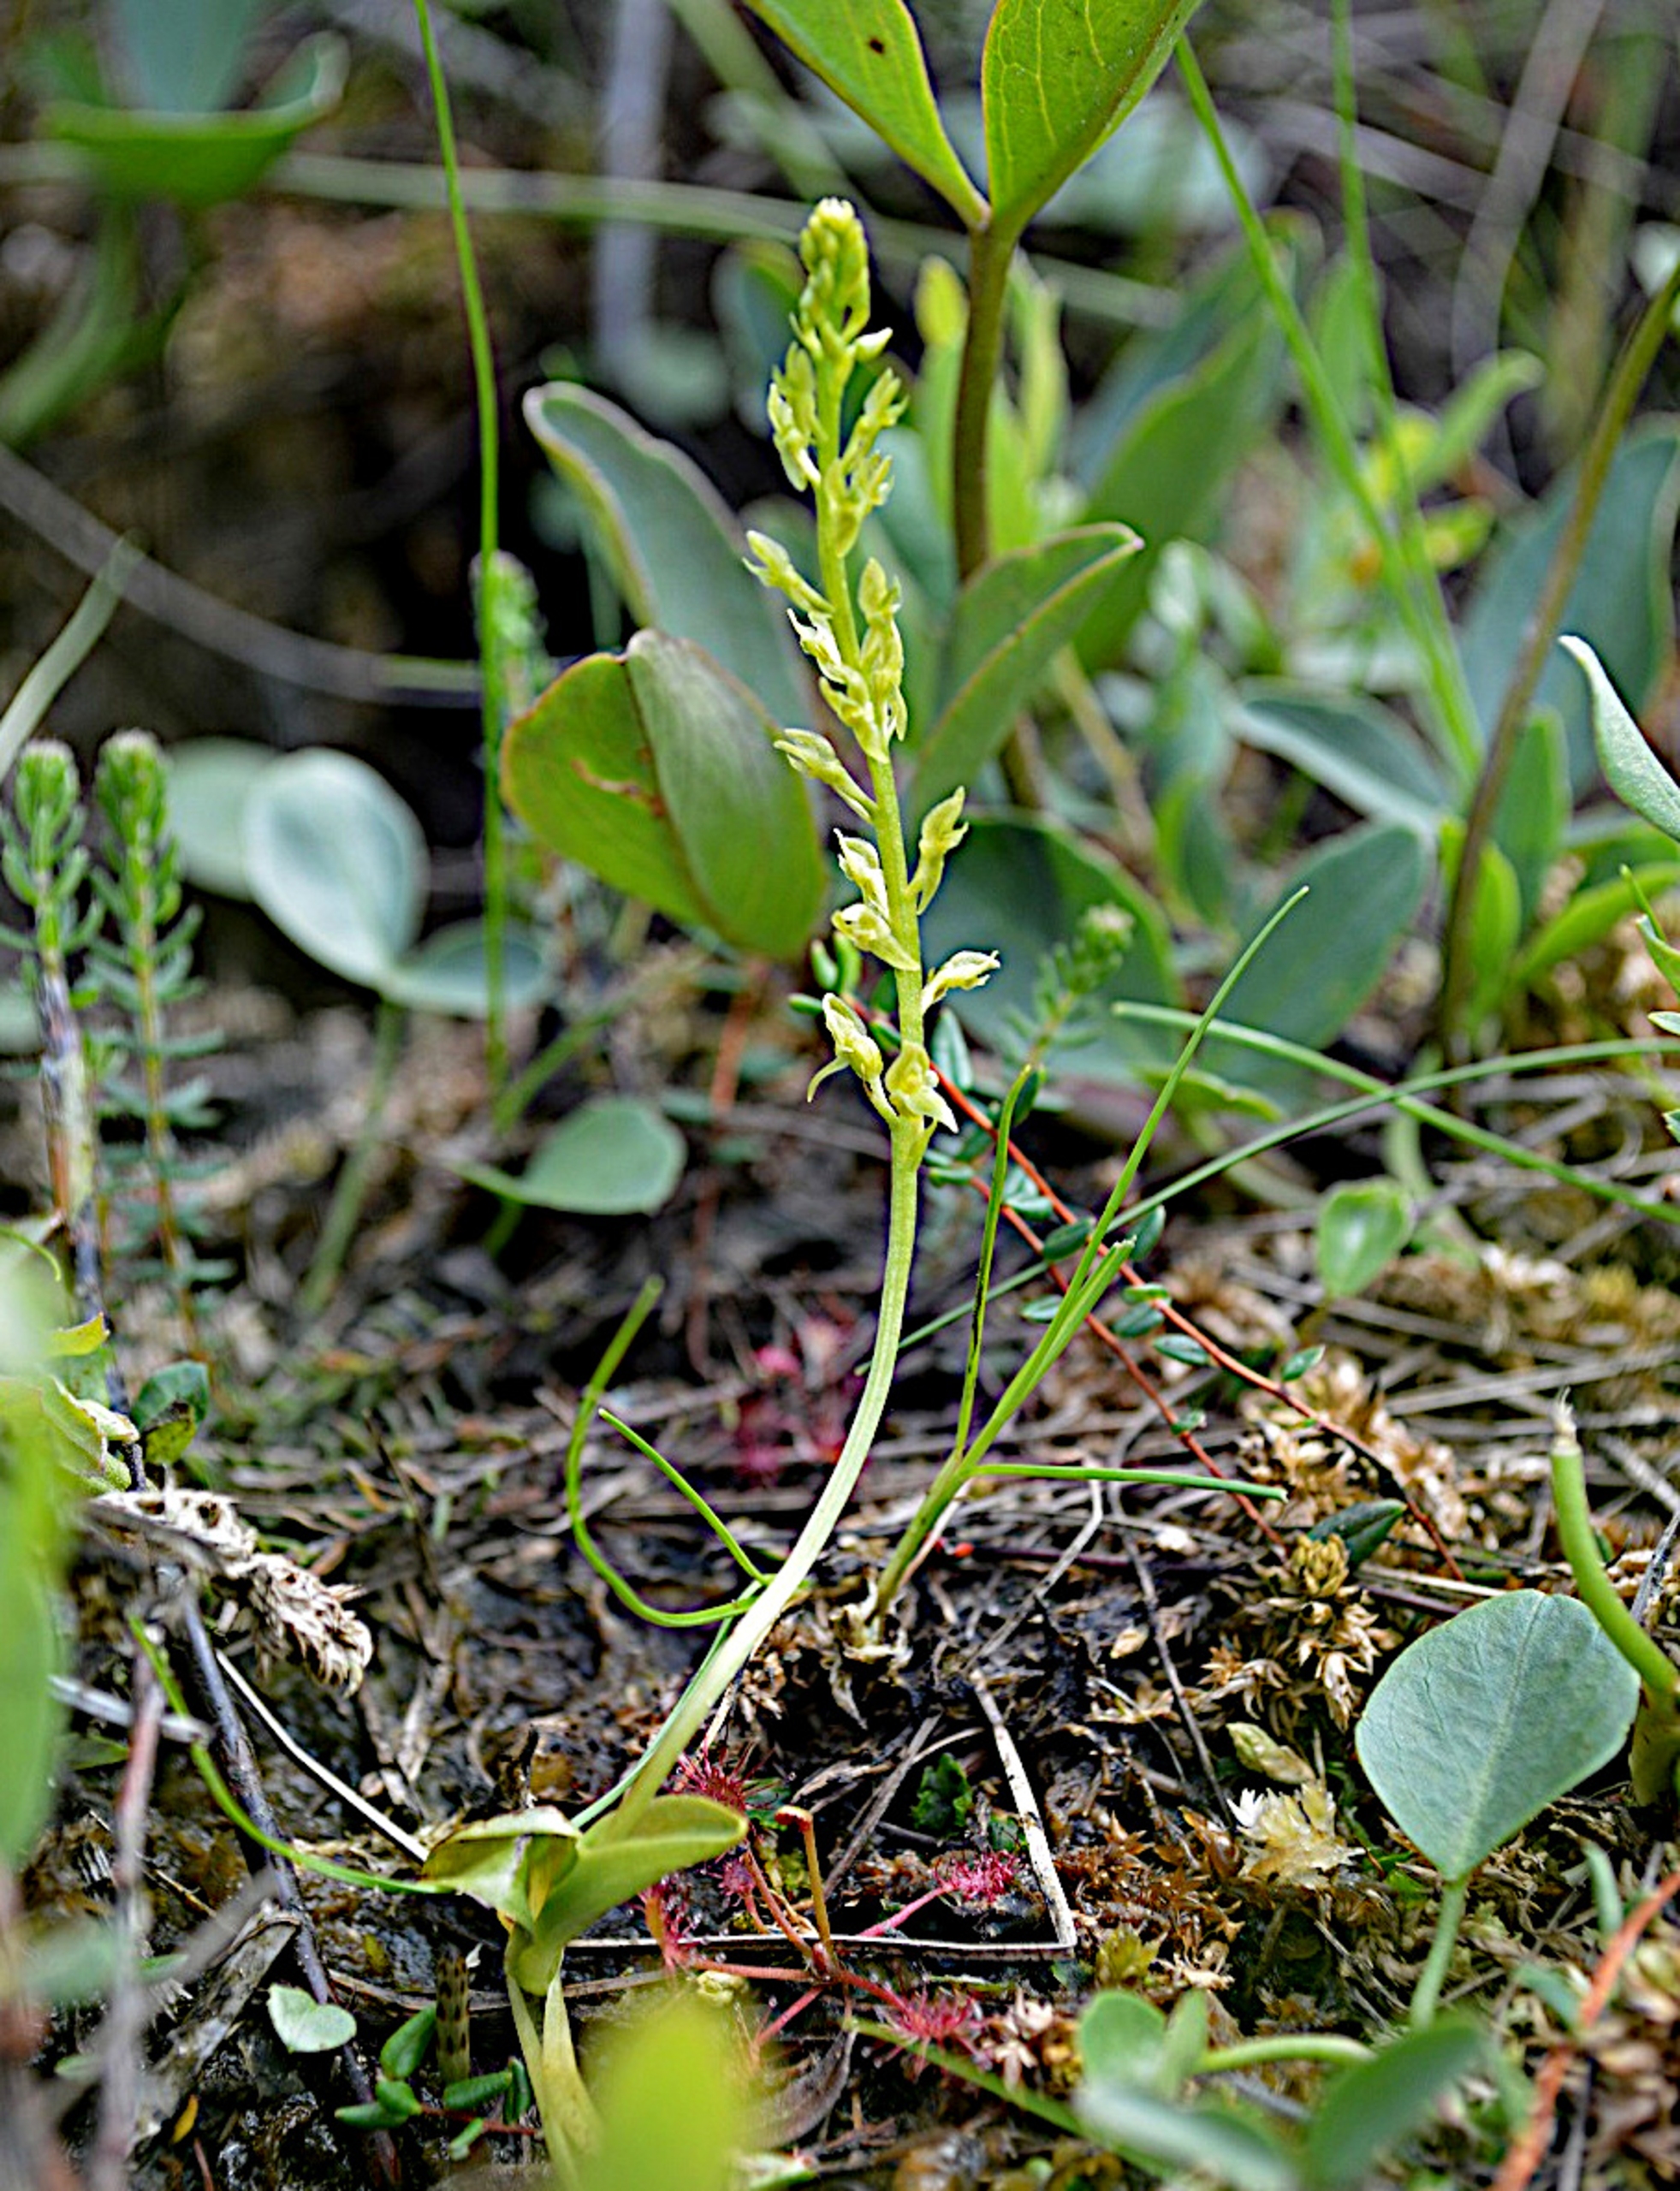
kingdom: Plantae
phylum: Tracheophyta
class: Liliopsida
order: Asparagales
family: Orchidaceae
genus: Hammarbya
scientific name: Hammarbya paludosa
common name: Hjertelæbe
